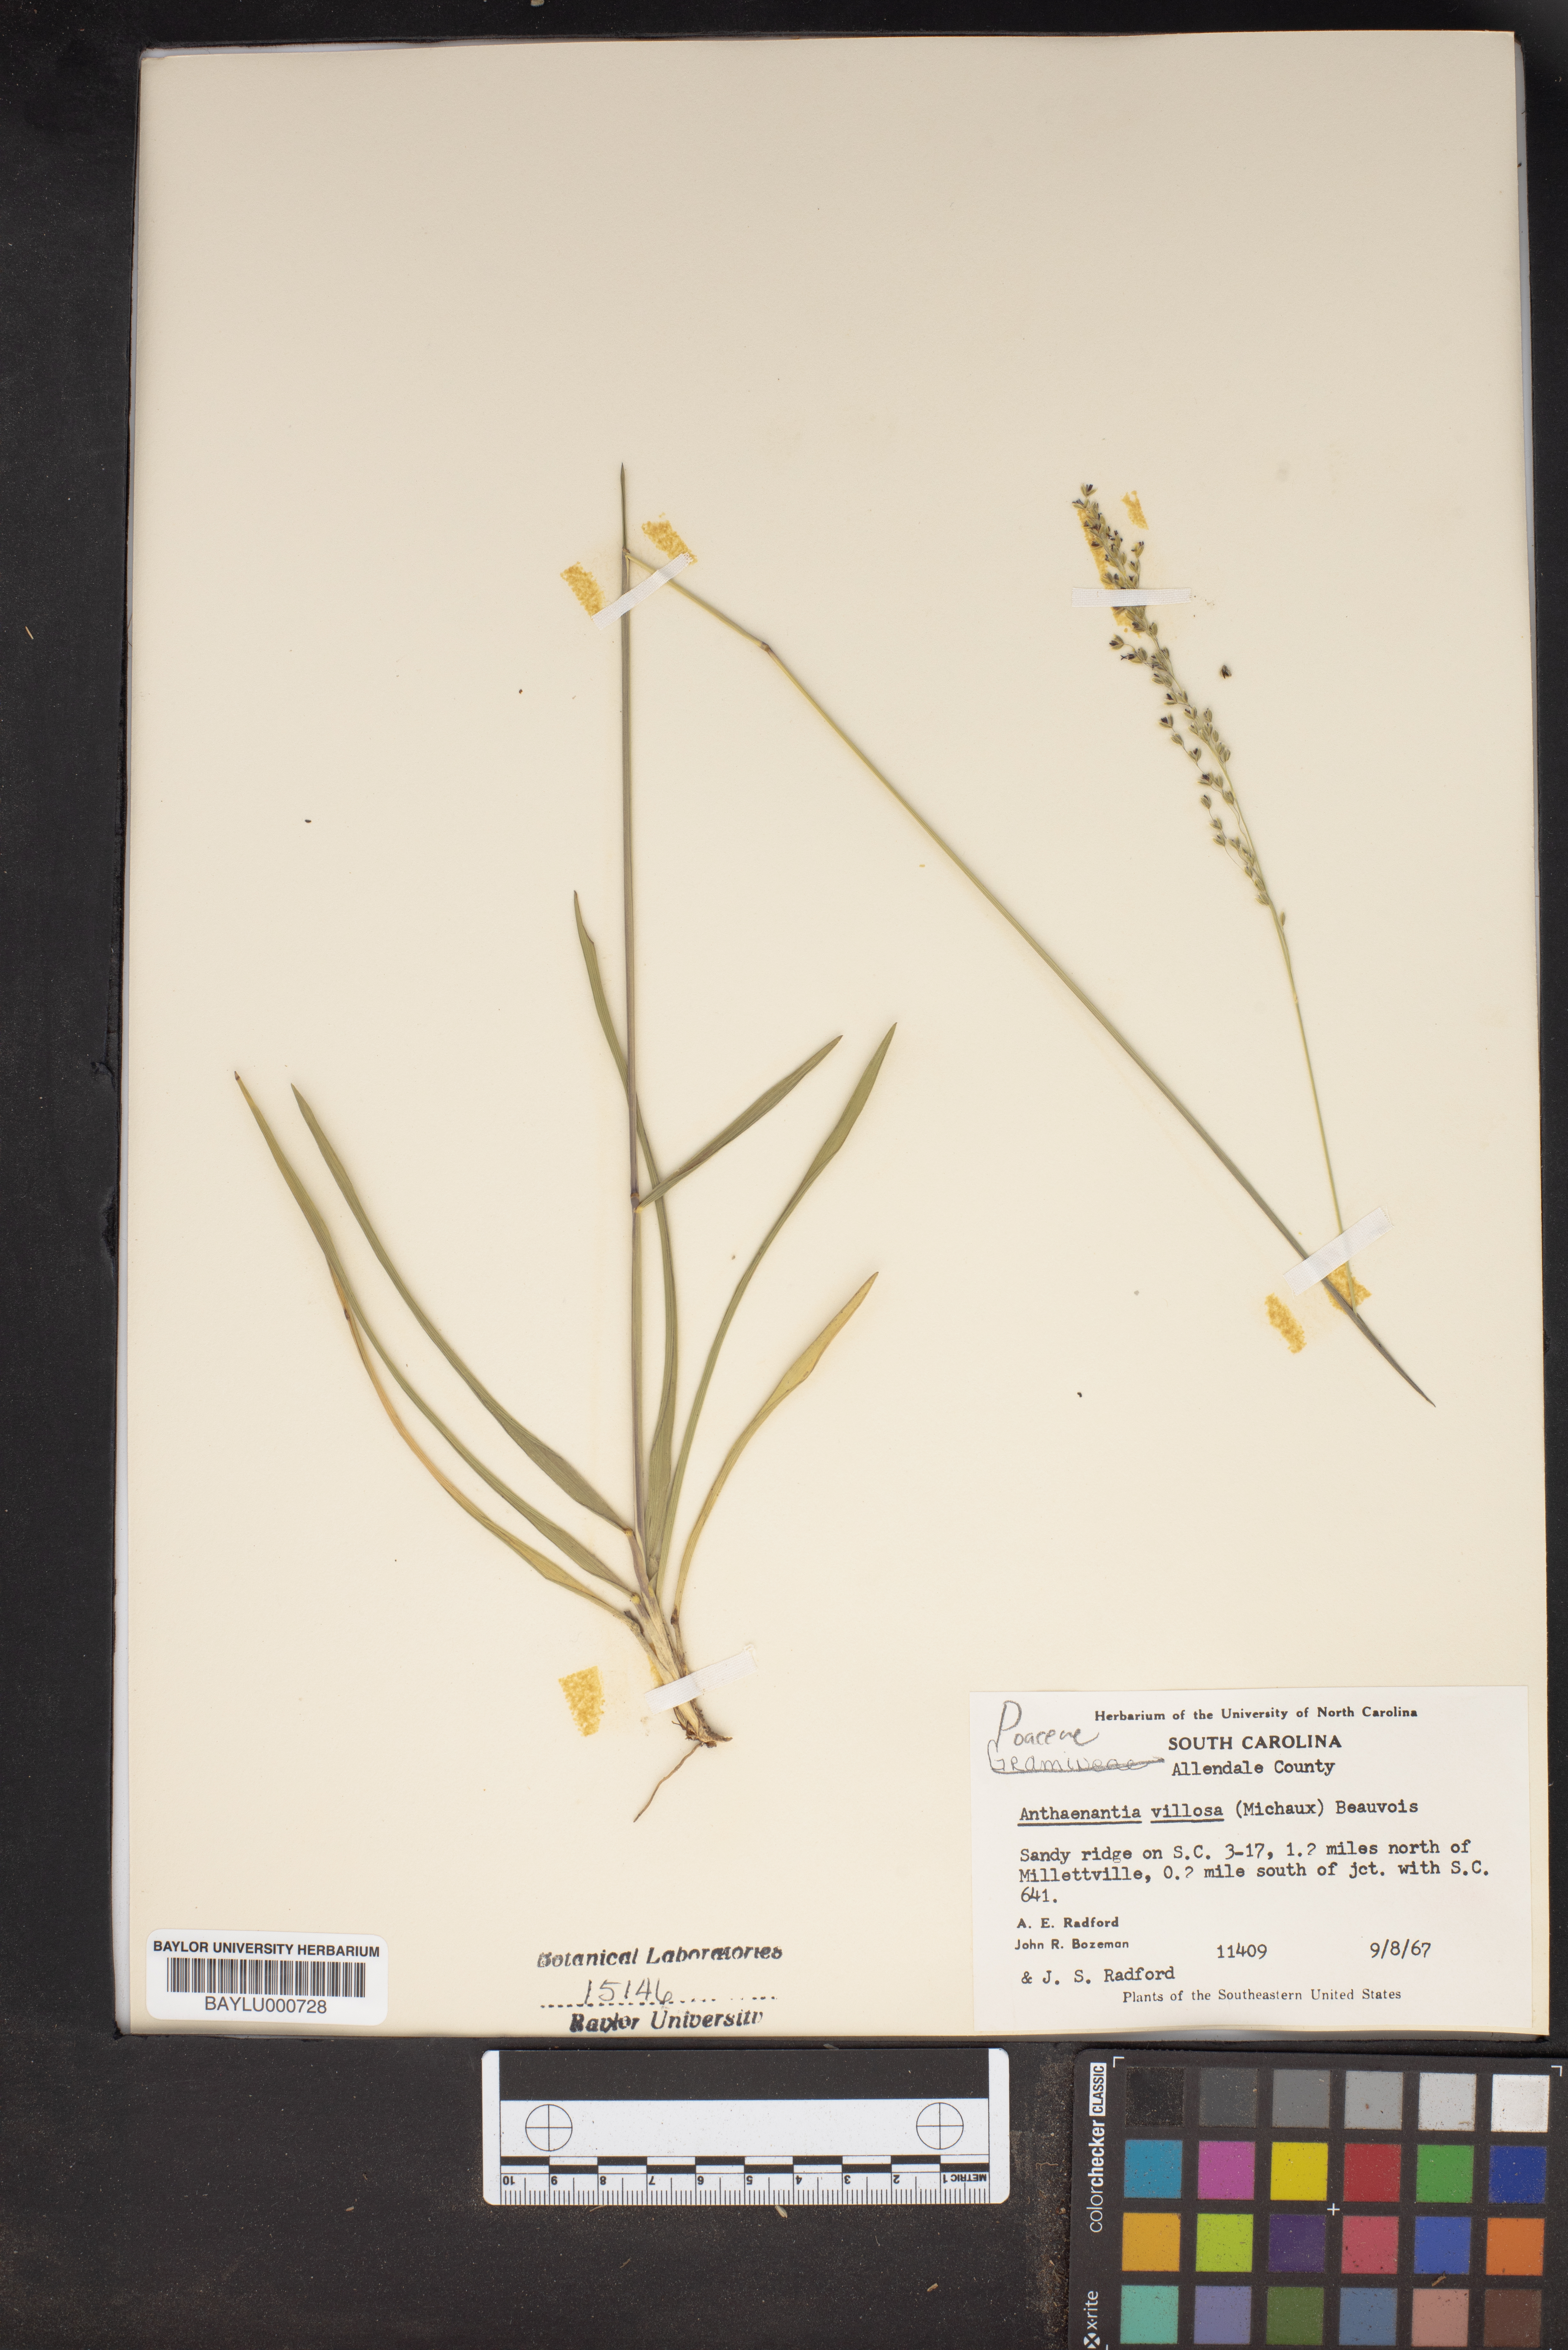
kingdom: Plantae
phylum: Tracheophyta
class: Liliopsida
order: Poales
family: Poaceae
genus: Anthenantia
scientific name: Anthenantia villosa
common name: Green silkyscale
